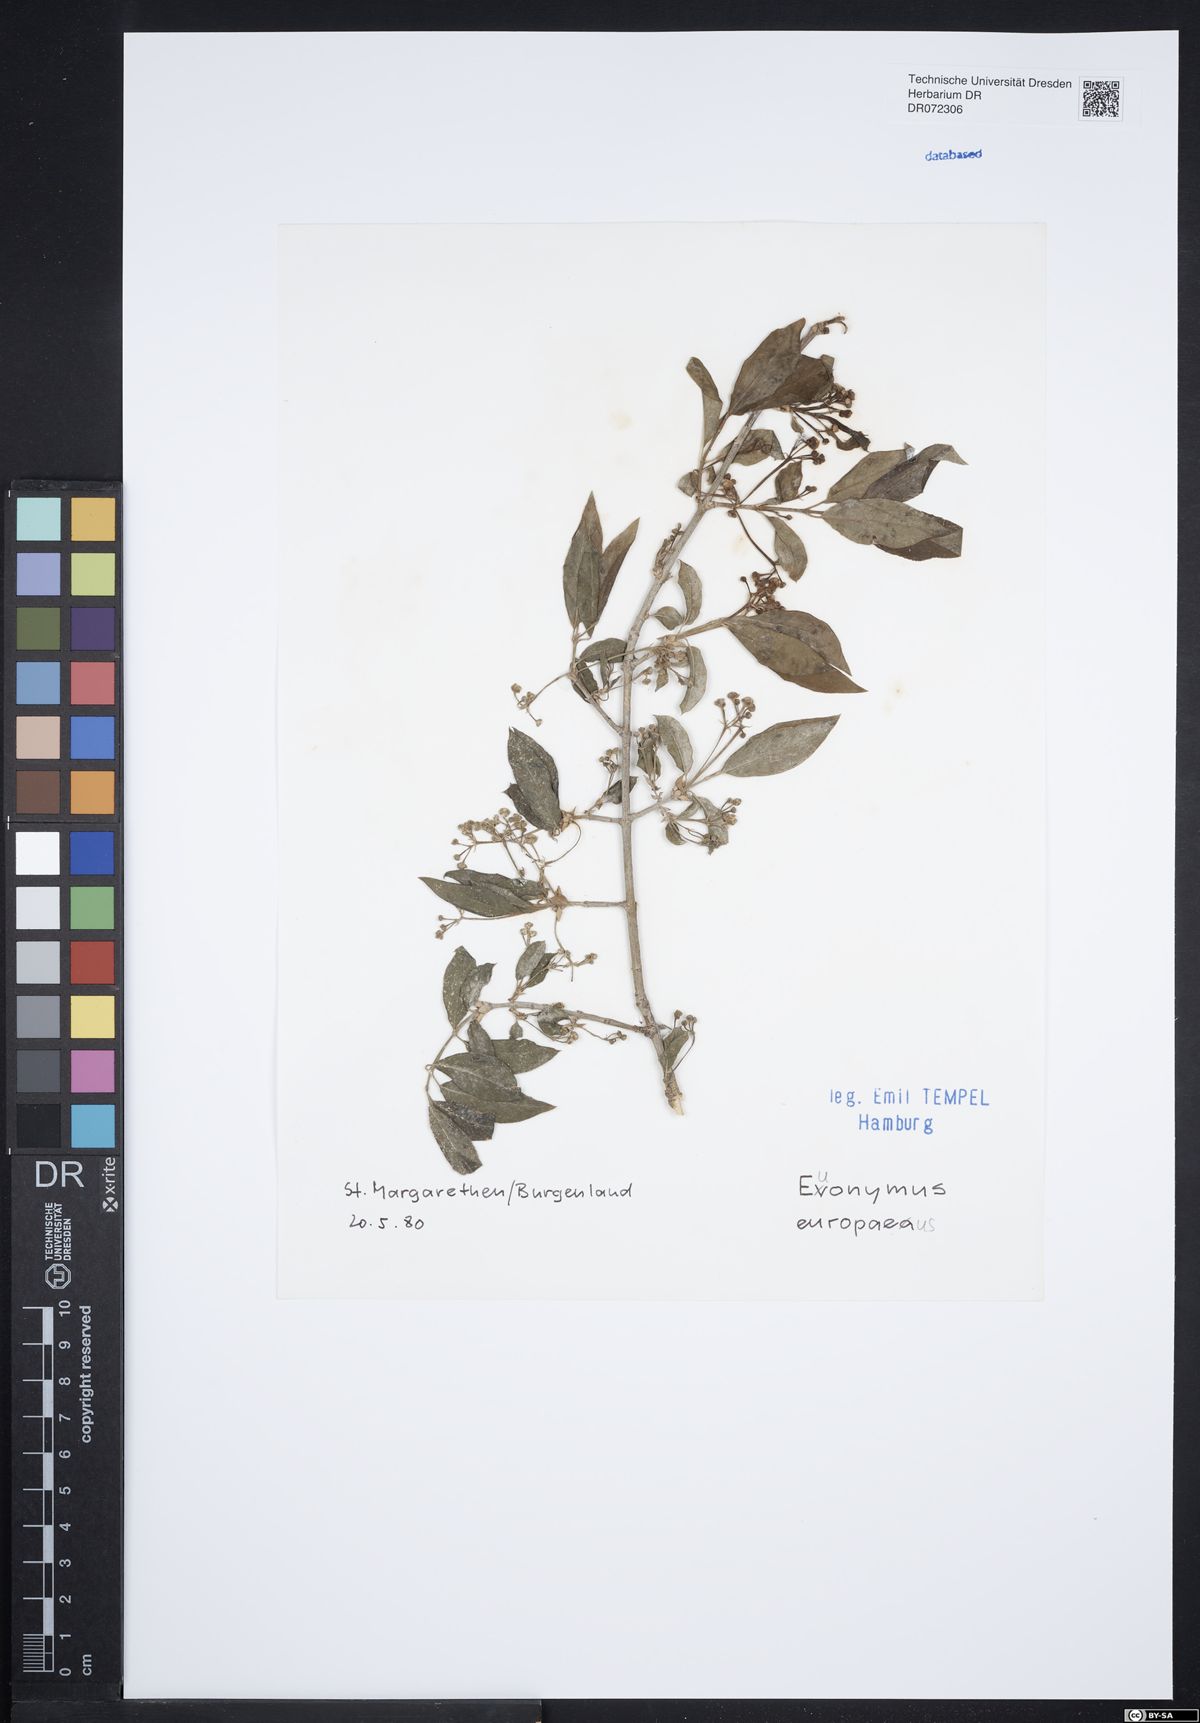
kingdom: Plantae
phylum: Tracheophyta
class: Magnoliopsida
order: Celastrales
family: Celastraceae
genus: Euonymus
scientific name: Euonymus europaeus
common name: Spindle
